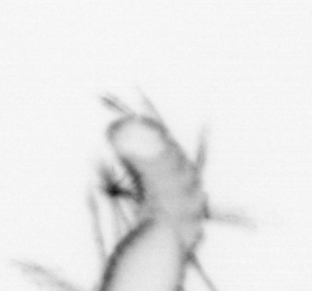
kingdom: Animalia
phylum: Annelida
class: Polychaeta
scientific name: Polychaeta
